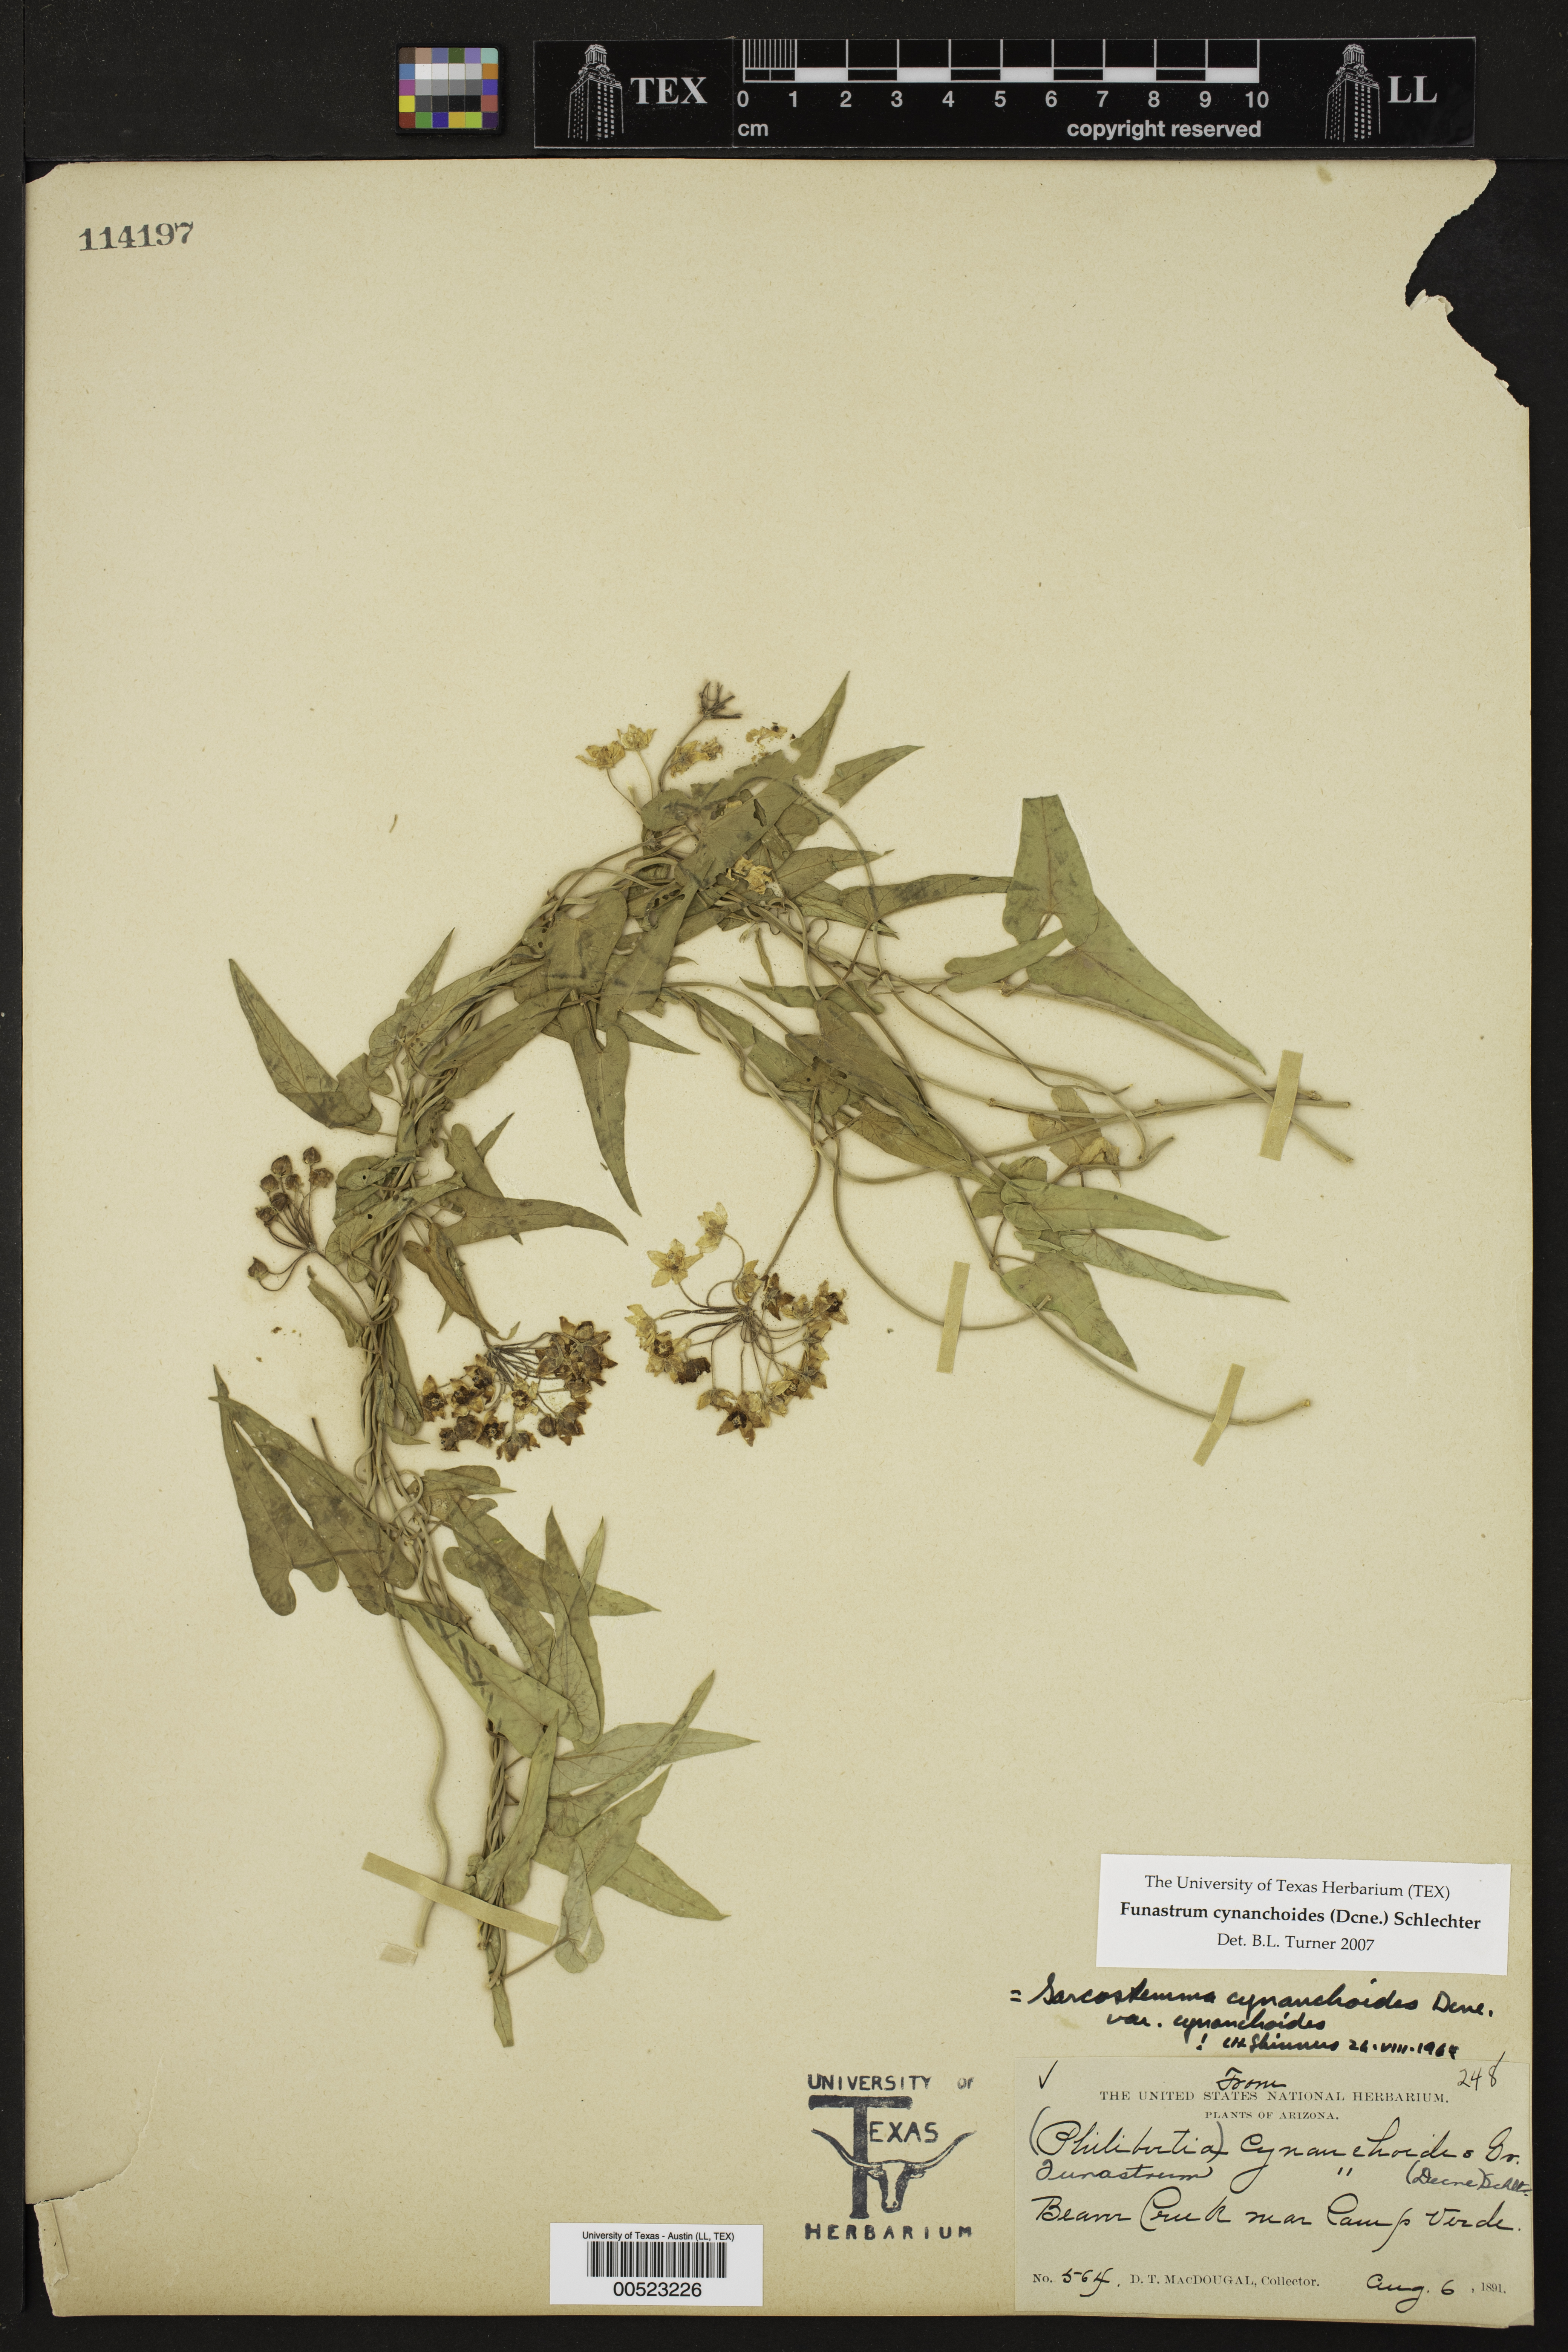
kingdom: Plantae
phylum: Tracheophyta
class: Magnoliopsida
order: Gentianales
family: Apocynaceae
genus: Funastrum
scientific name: Funastrum cynanchoides
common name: Climbing-milkweed
